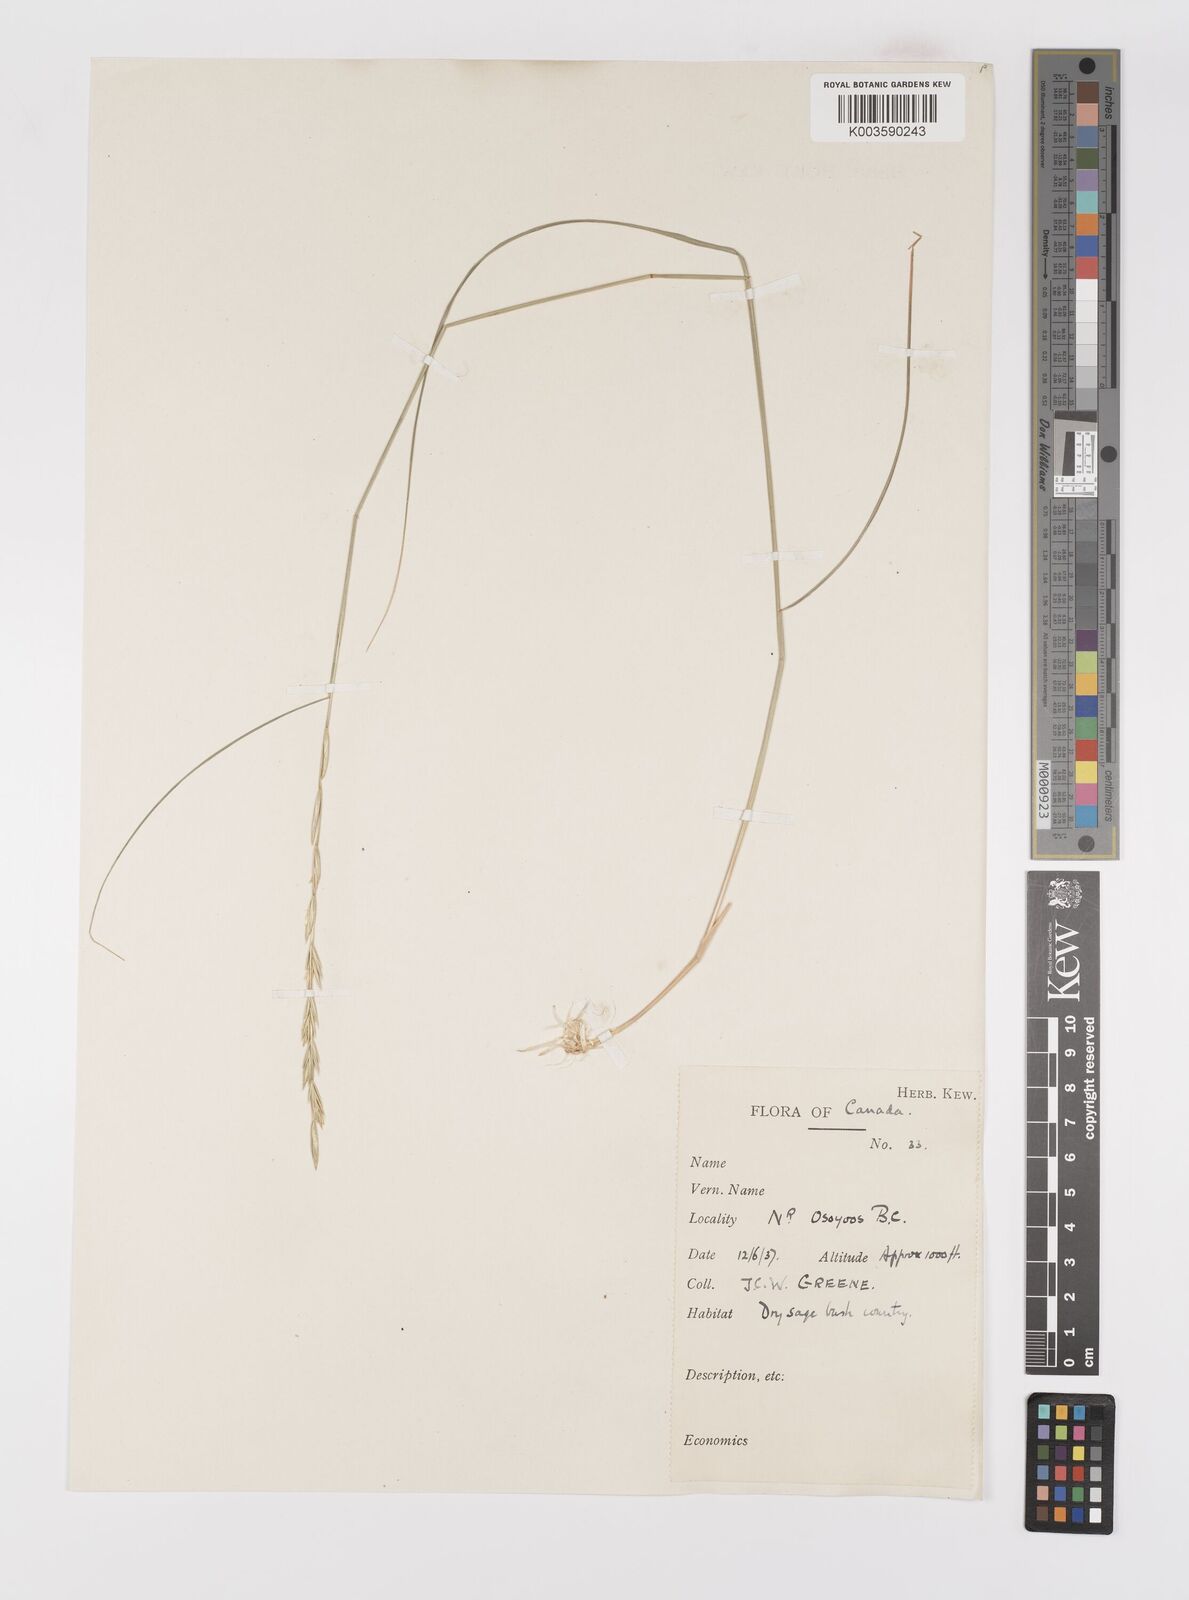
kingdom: Plantae
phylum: Tracheophyta
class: Liliopsida
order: Poales
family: Poaceae
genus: Elymus
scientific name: Elymus
